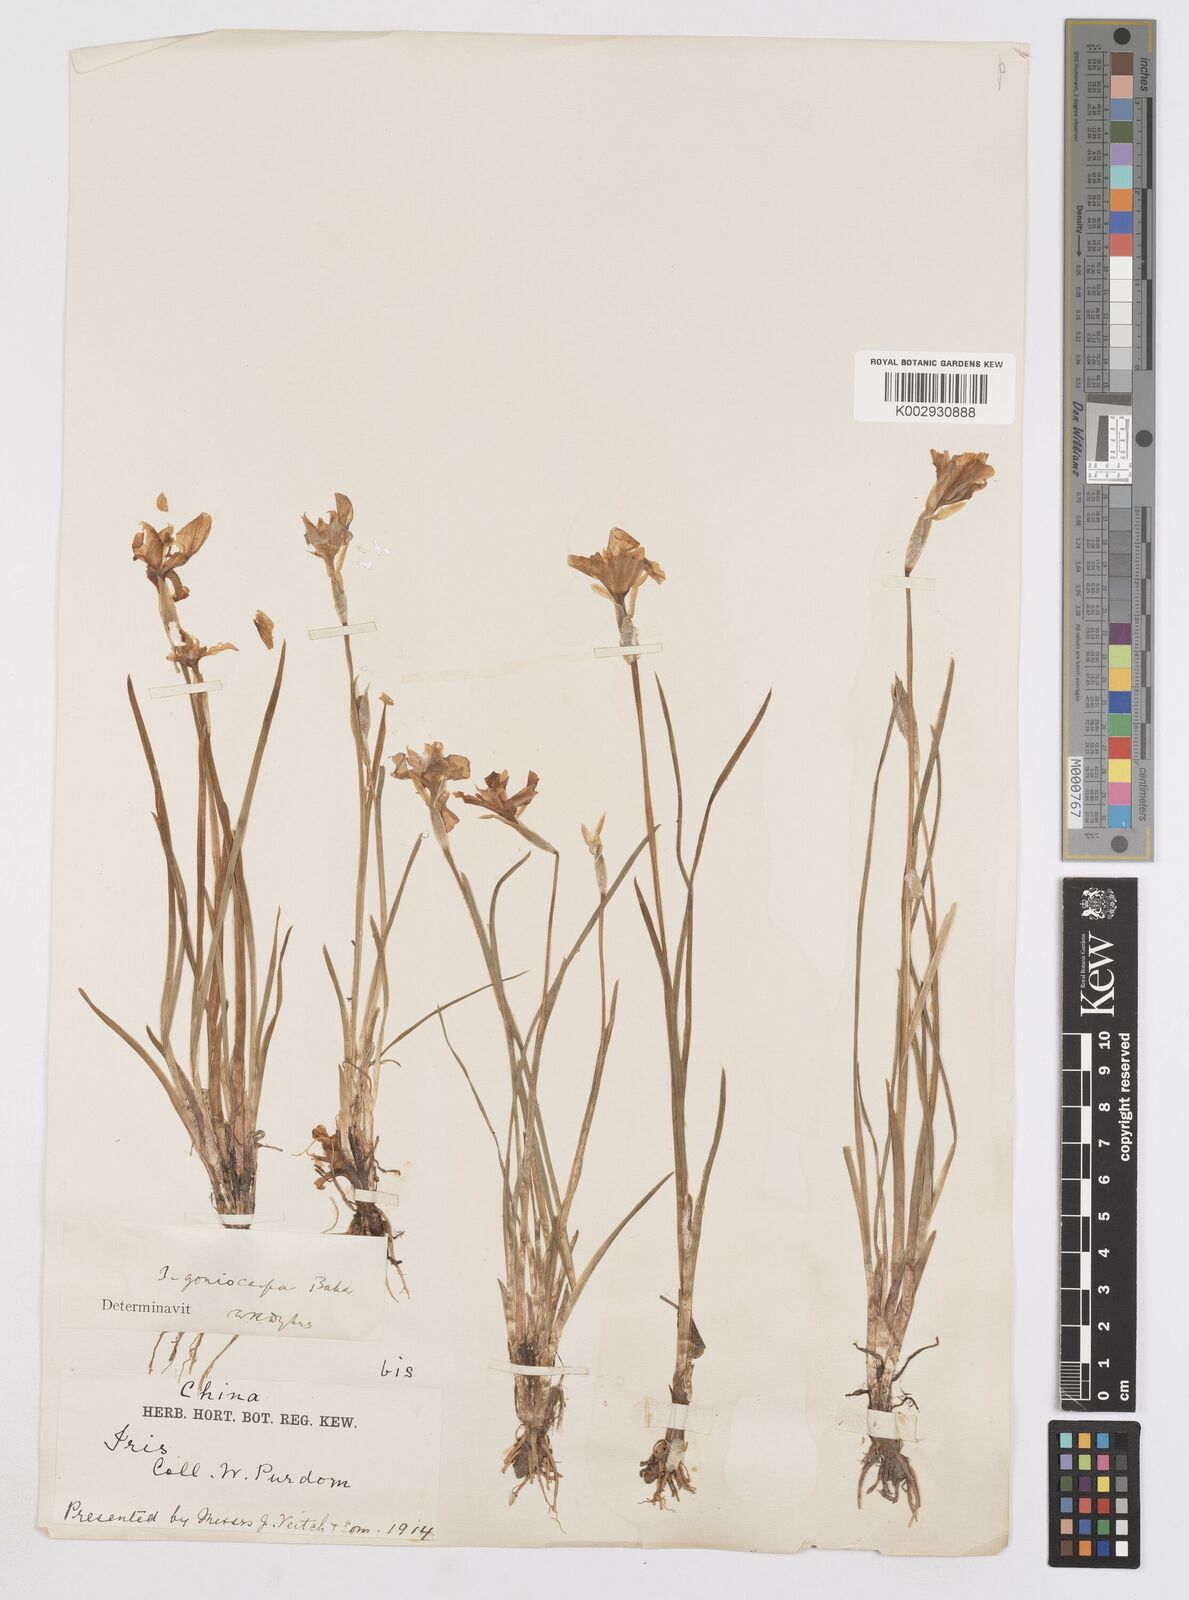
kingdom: Plantae
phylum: Tracheophyta
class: Liliopsida
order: Asparagales
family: Iridaceae
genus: Iris
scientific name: Iris goniocarpa
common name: Angular-fruit iris
